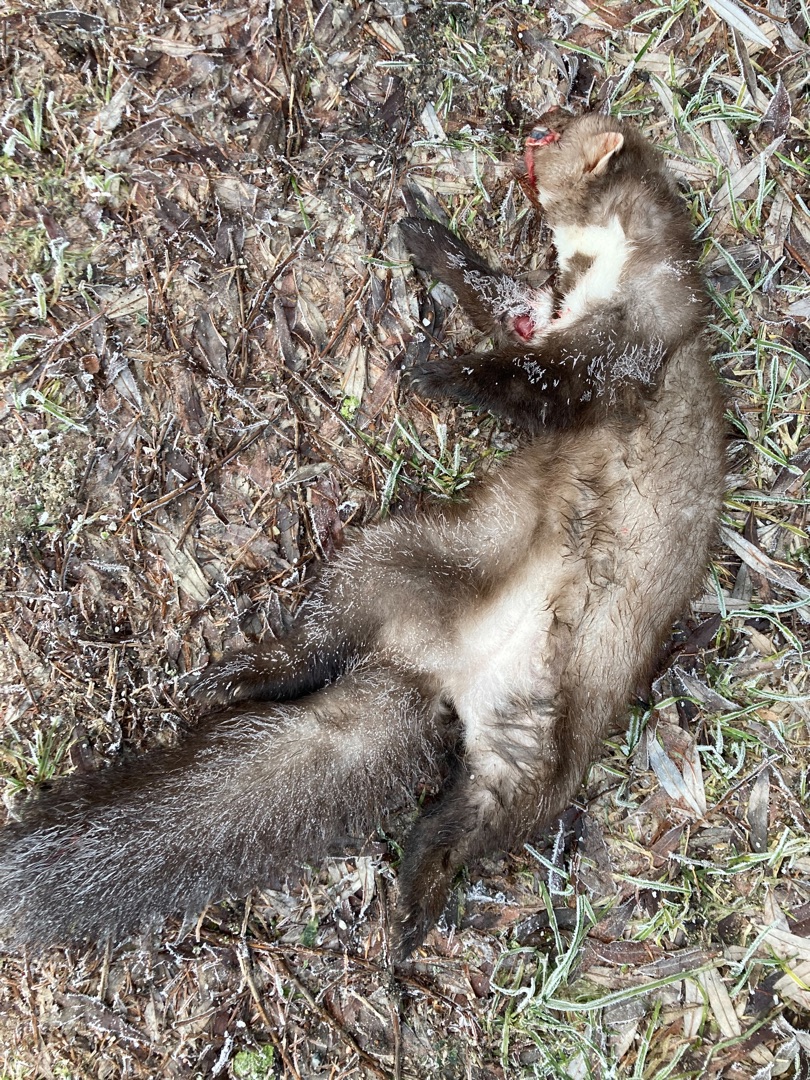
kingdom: Animalia
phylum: Chordata
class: Mammalia
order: Carnivora
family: Mustelidae
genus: Martes
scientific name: Martes foina
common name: Husmår
